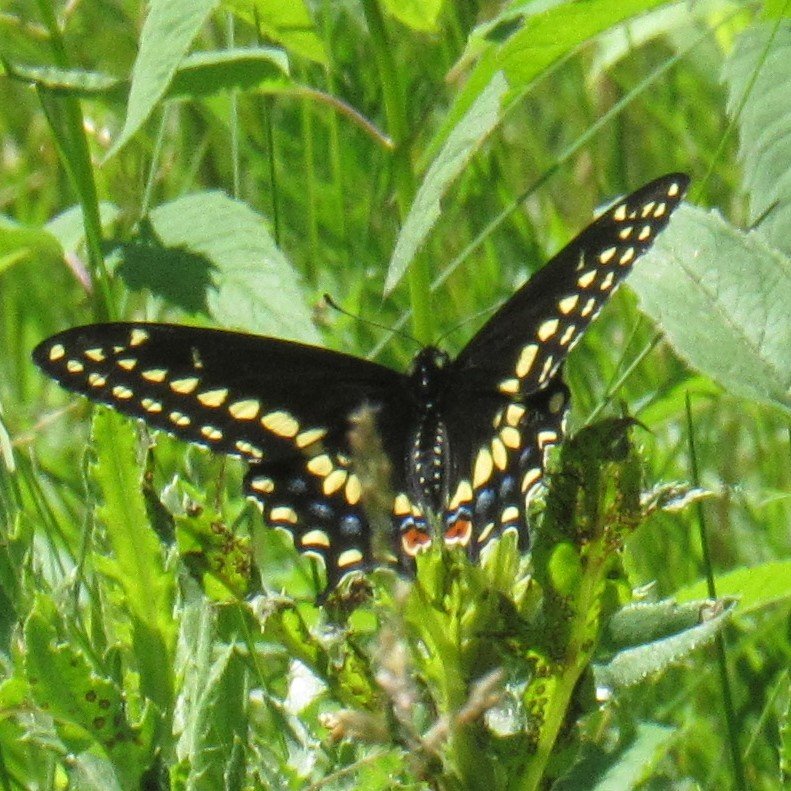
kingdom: Animalia
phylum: Arthropoda
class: Insecta
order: Lepidoptera
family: Papilionidae
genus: Papilio
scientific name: Papilio polyxenes
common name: Black Swallowtail
